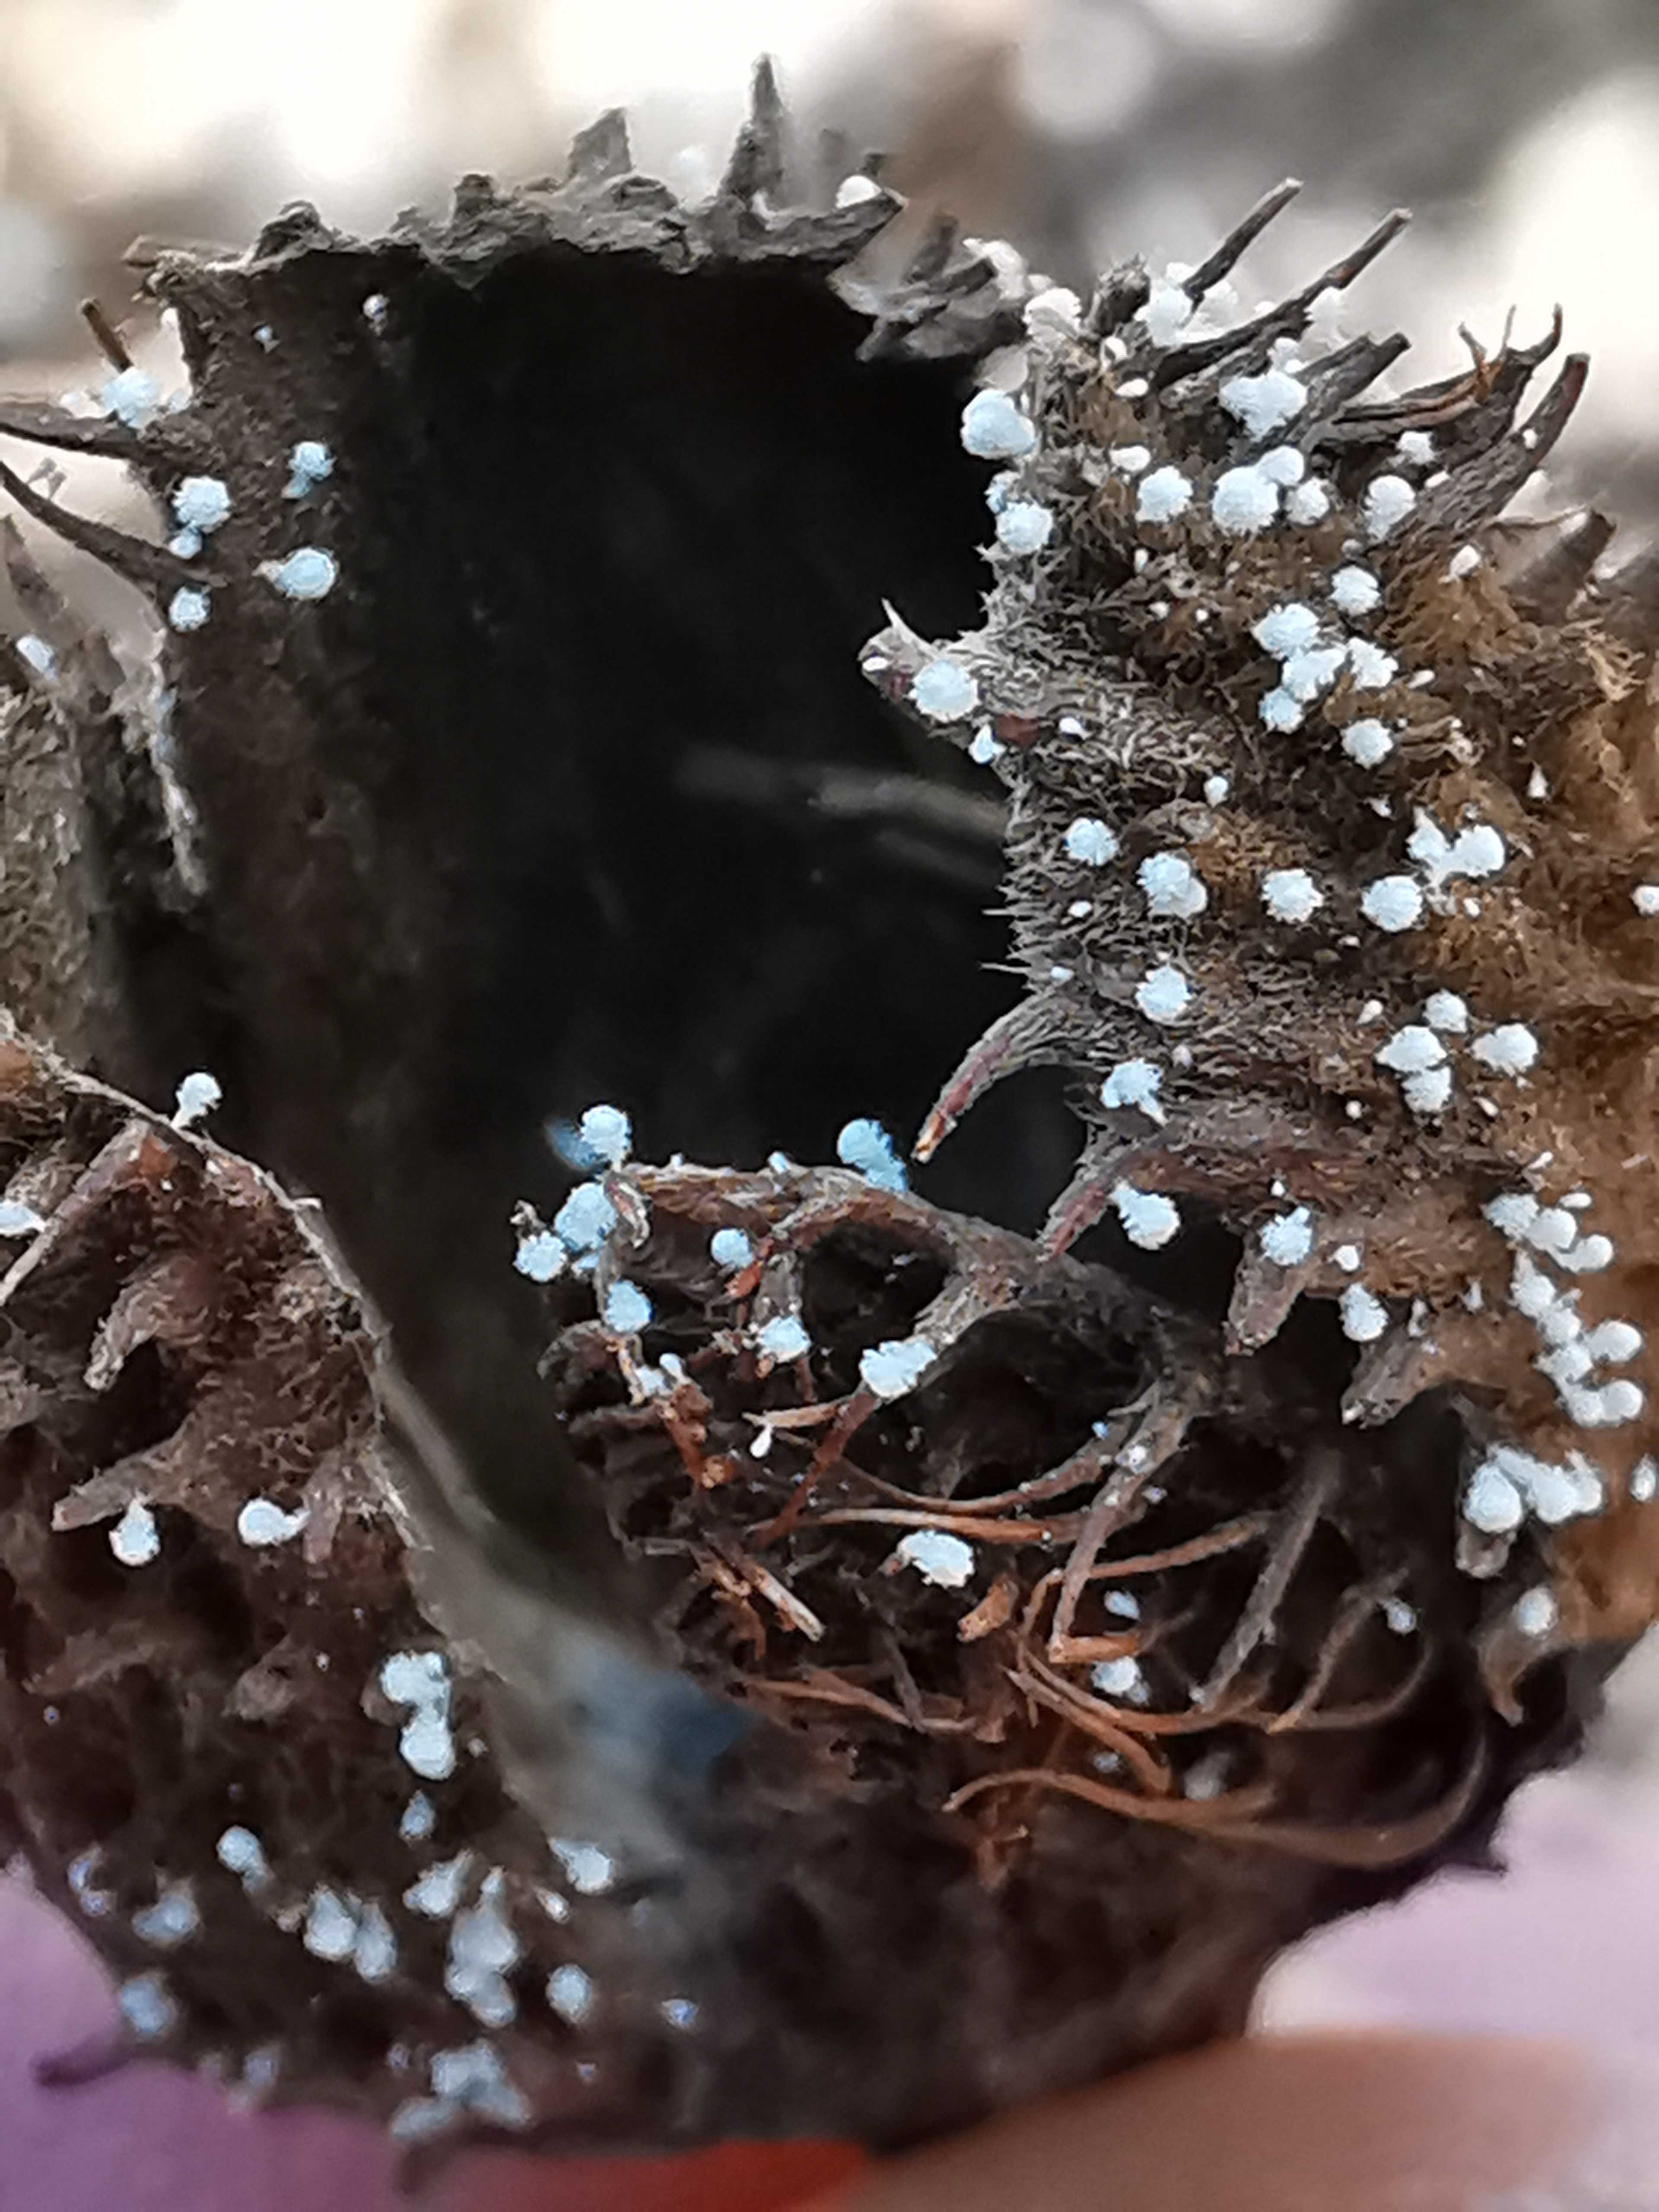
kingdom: Fungi
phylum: Ascomycota
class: Leotiomycetes
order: Helotiales
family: Lachnaceae
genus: Lachnum
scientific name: Lachnum virgineum
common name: jomfru-frynseskive
